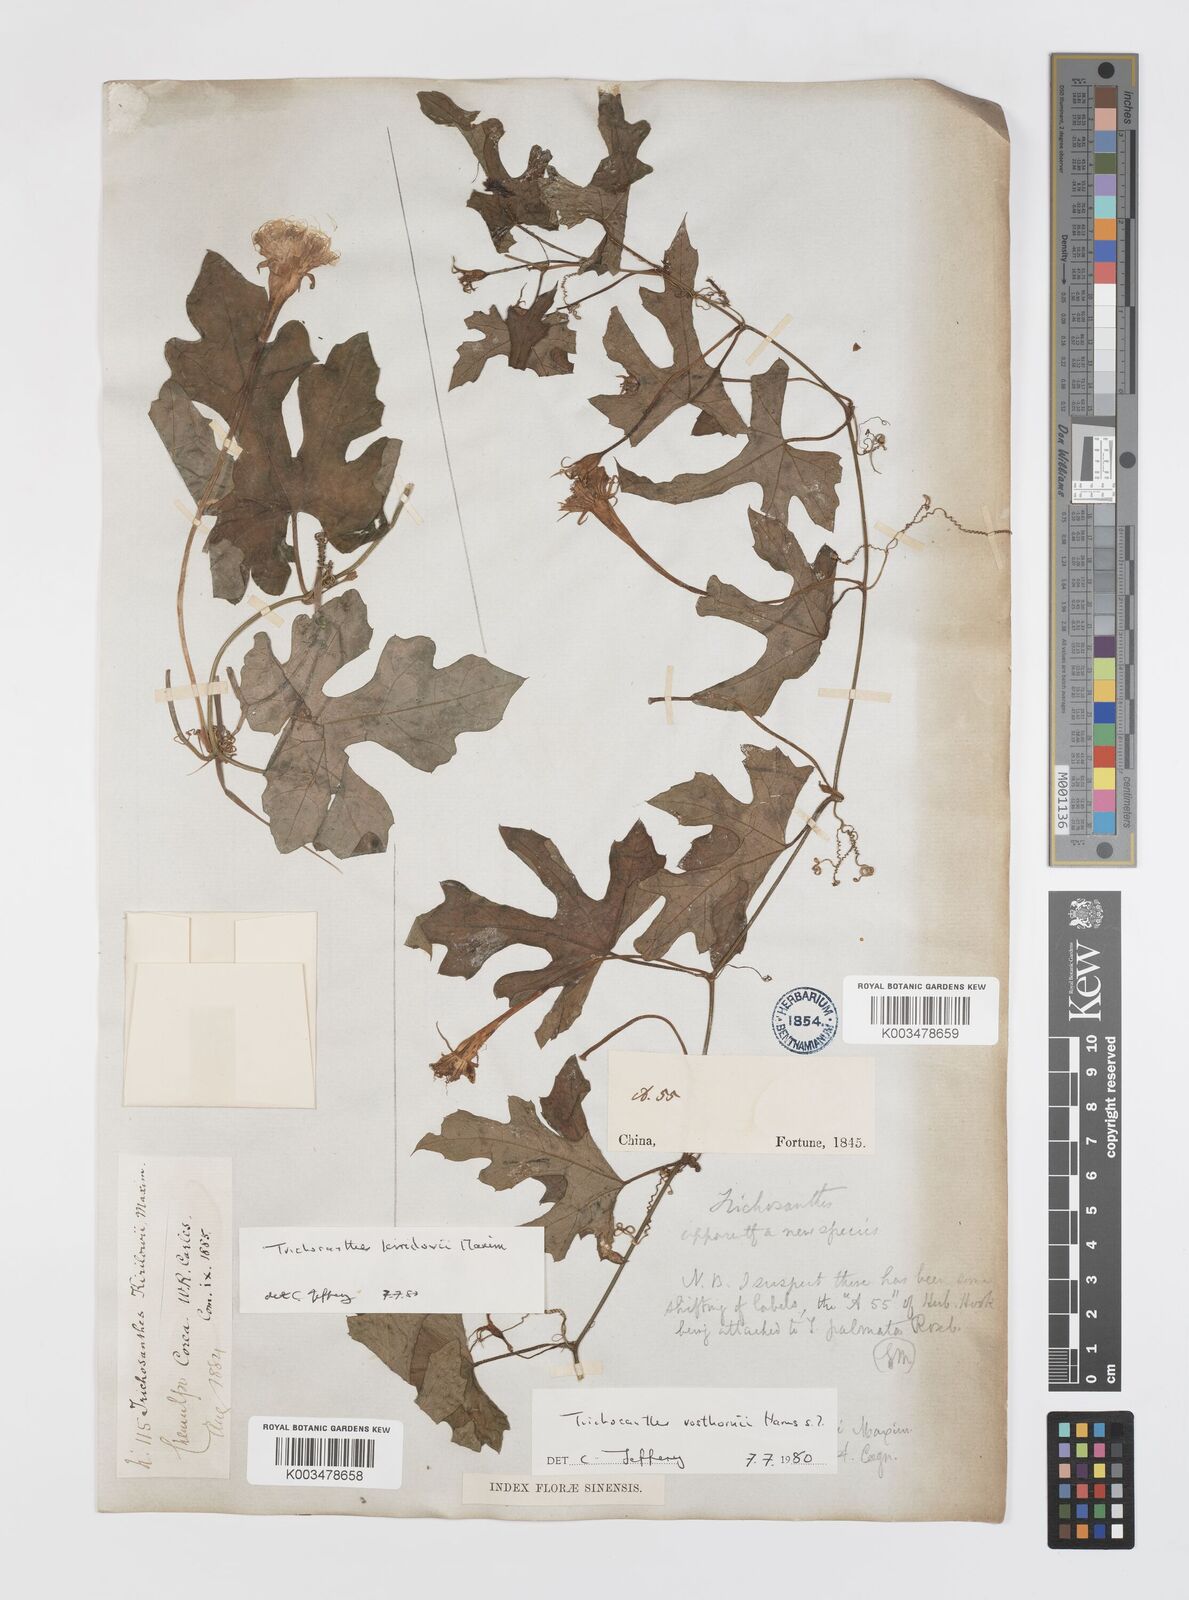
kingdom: Plantae
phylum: Tracheophyta
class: Magnoliopsida
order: Cucurbitales
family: Cucurbitaceae
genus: Trichosanthes
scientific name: Trichosanthes kirilowii
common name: Chinese-cucumber
